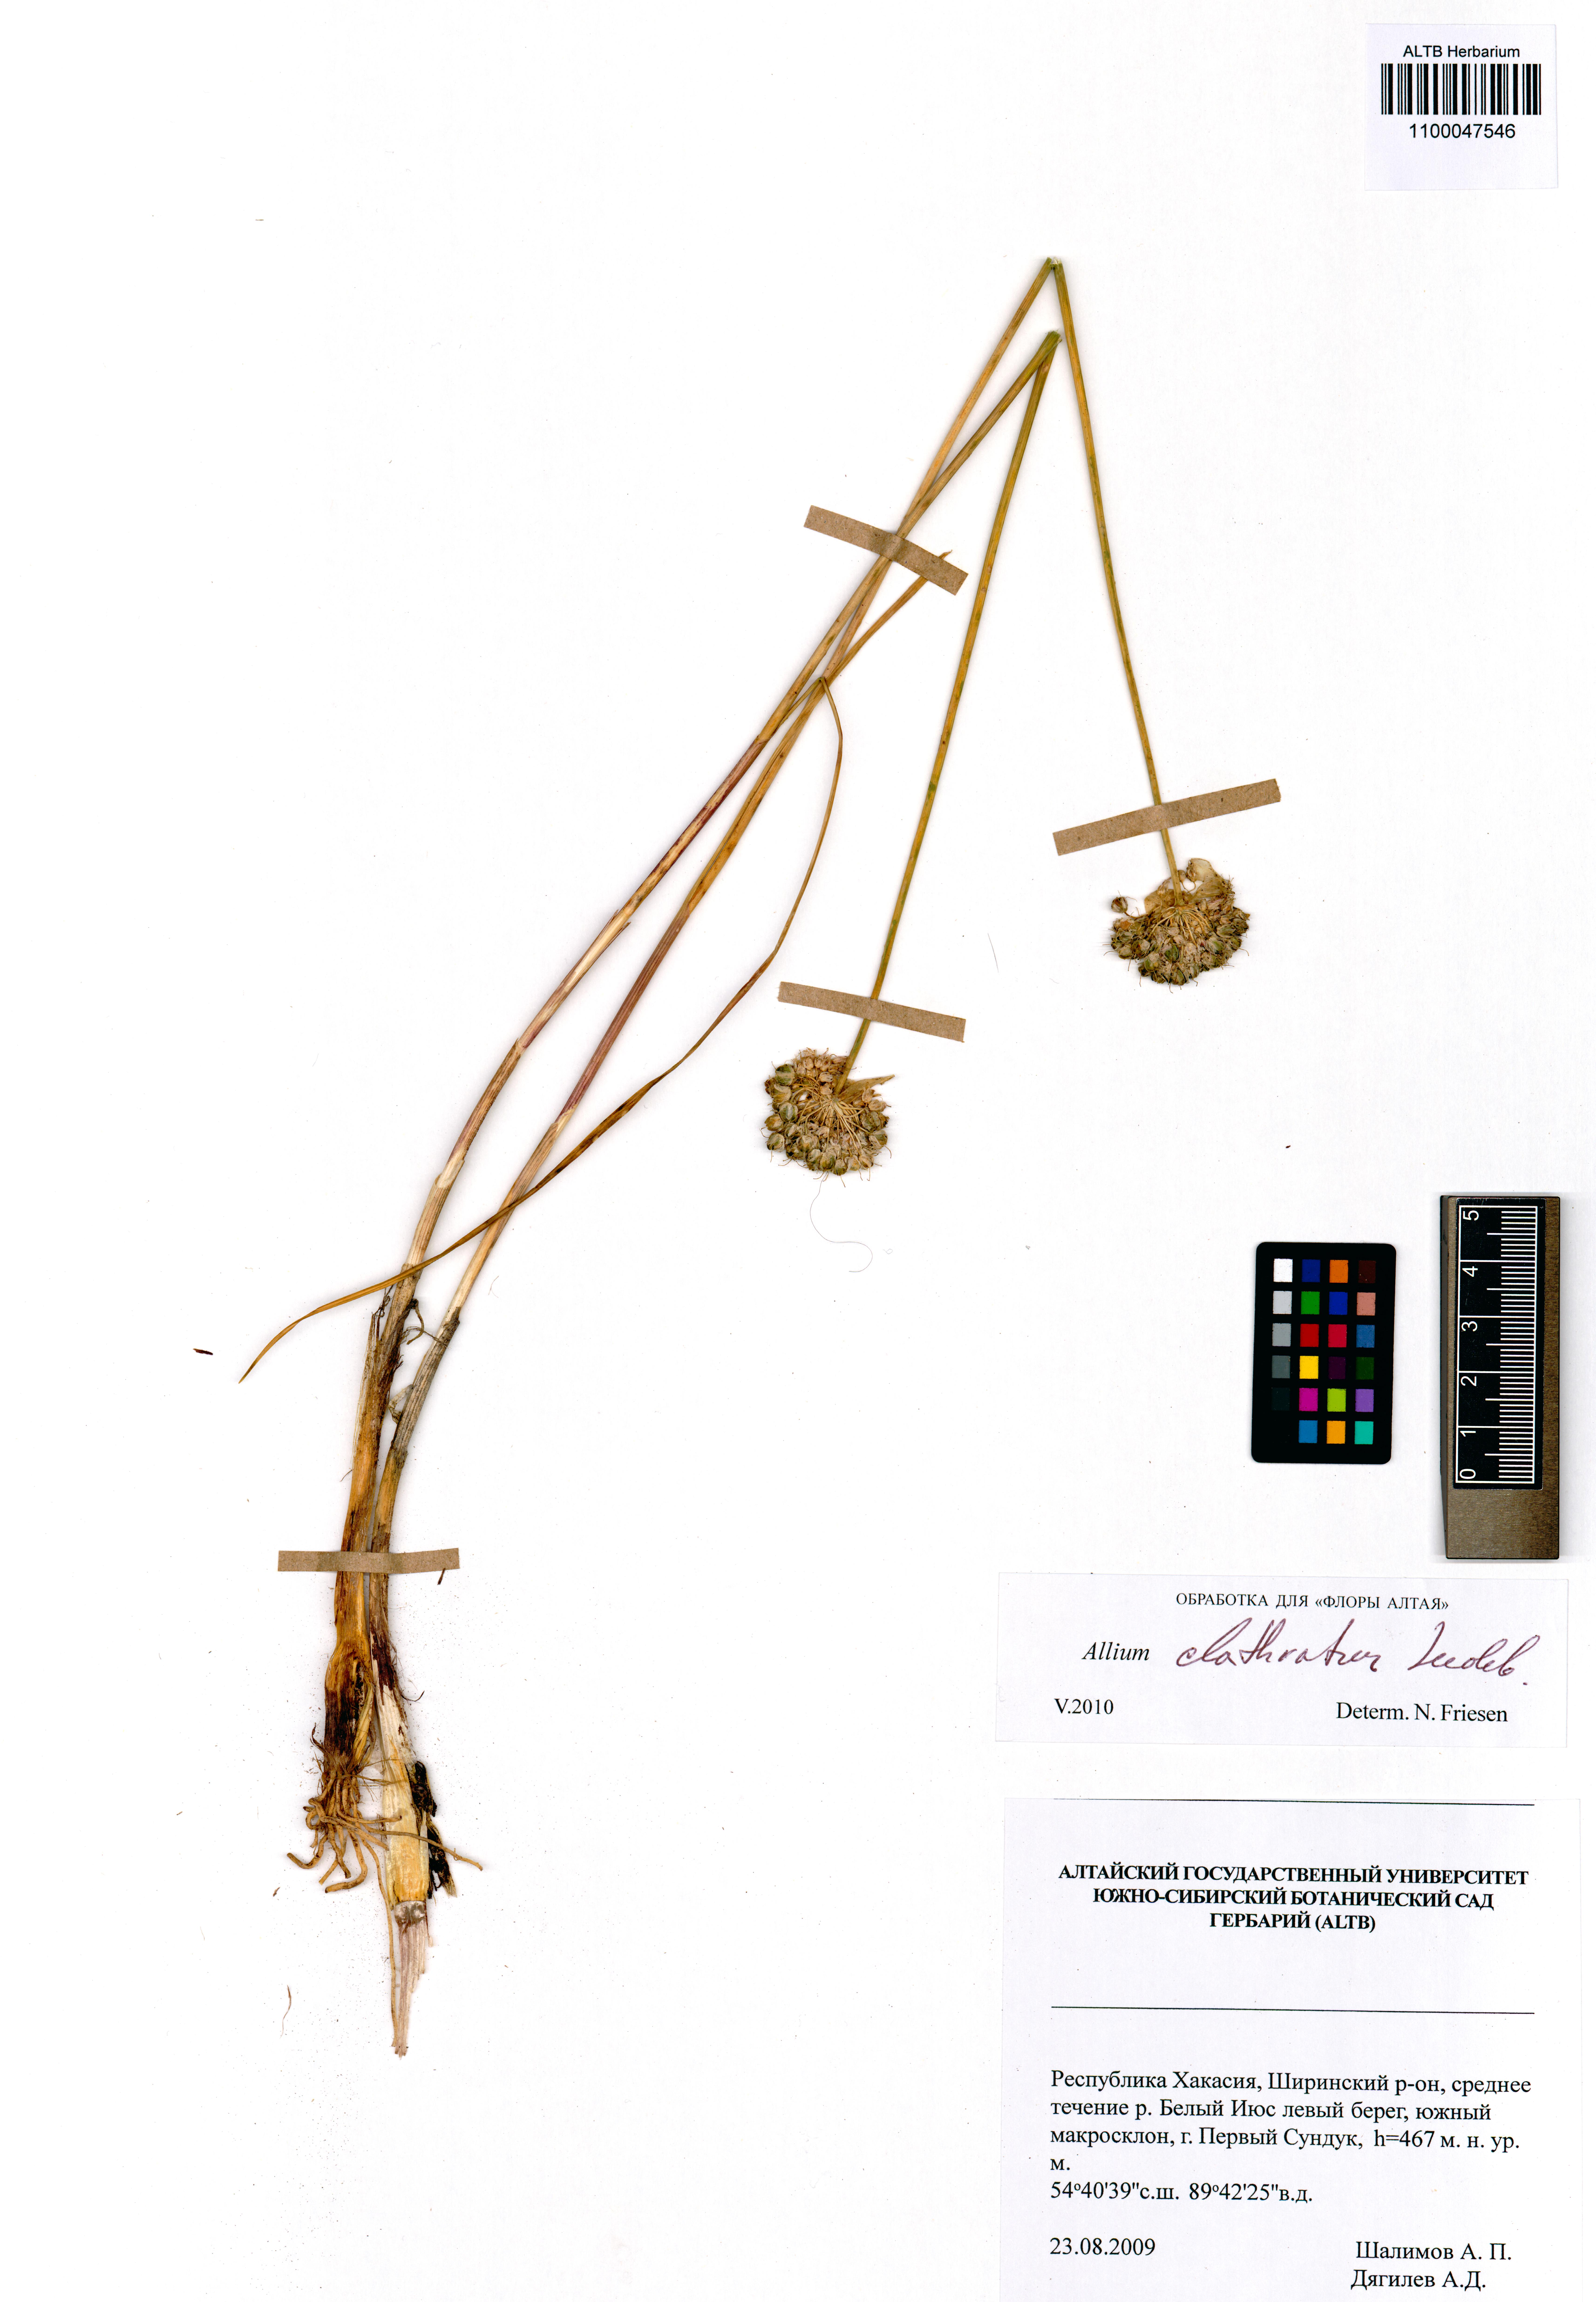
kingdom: Plantae
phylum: Tracheophyta
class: Liliopsida
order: Asparagales
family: Amaryllidaceae
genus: Allium
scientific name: Allium clathratum
